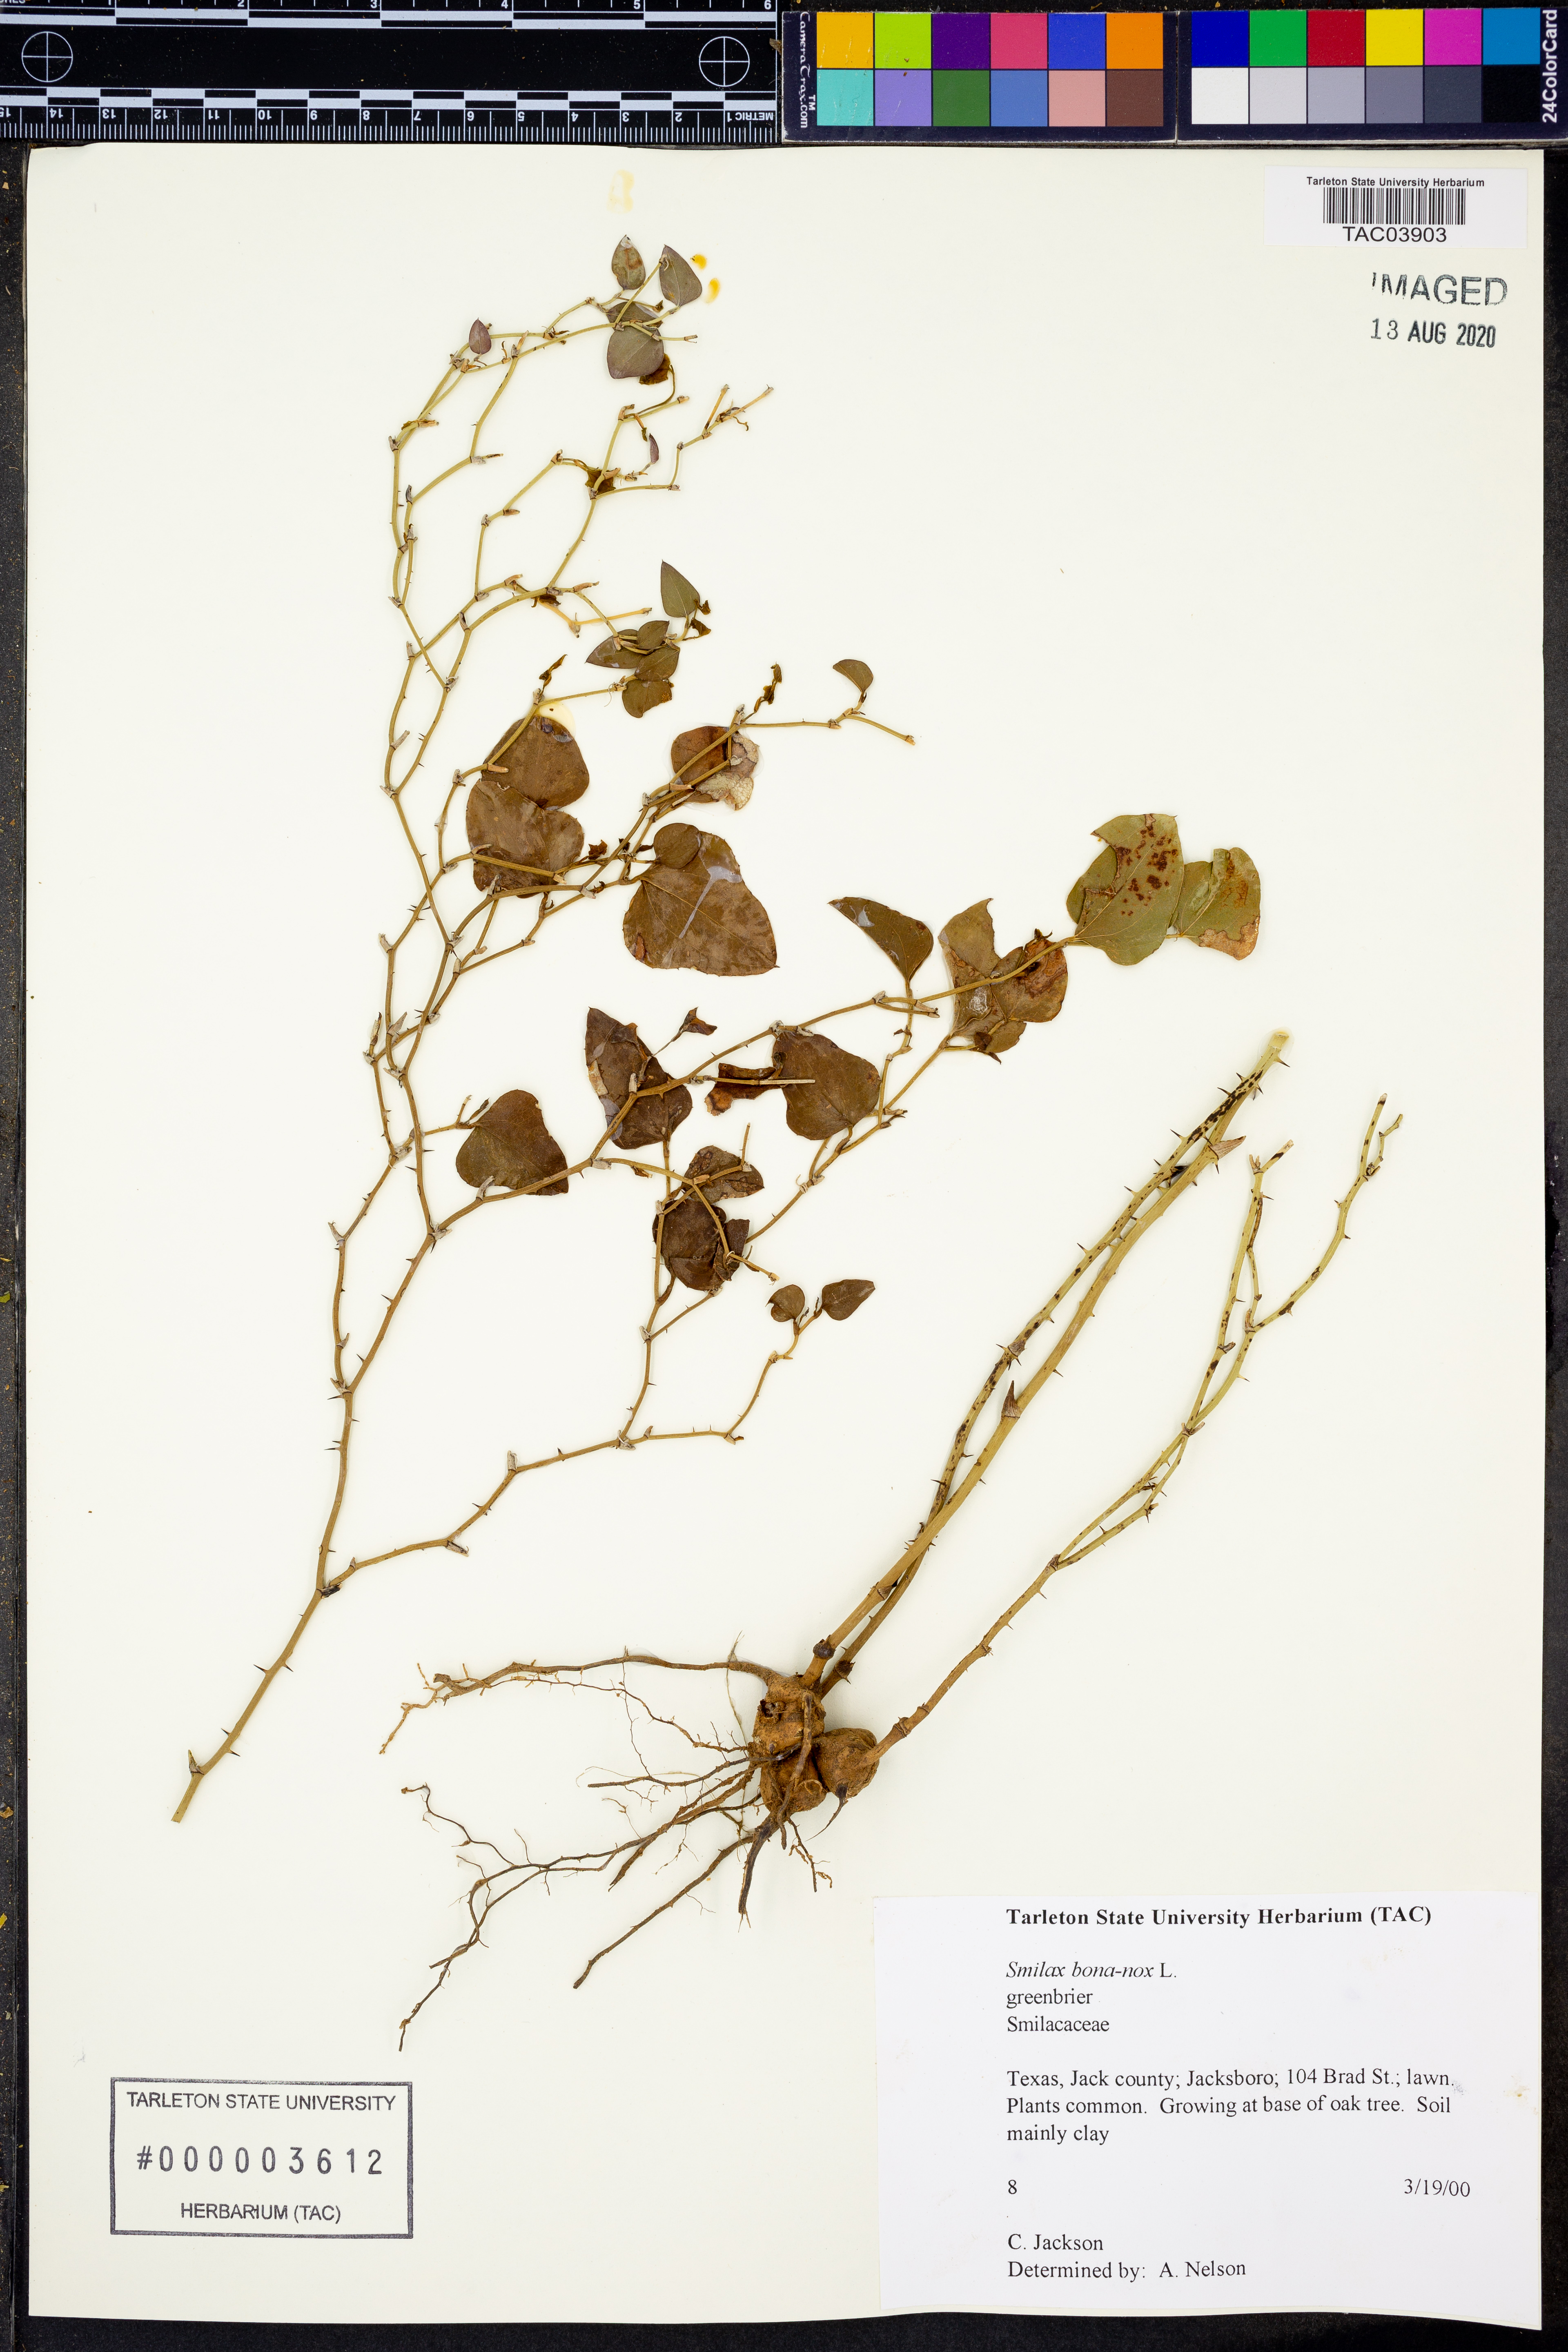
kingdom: Plantae
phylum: Tracheophyta
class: Liliopsida
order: Liliales
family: Smilacaceae
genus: Smilax
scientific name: Smilax bona-nox
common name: Catbrier
